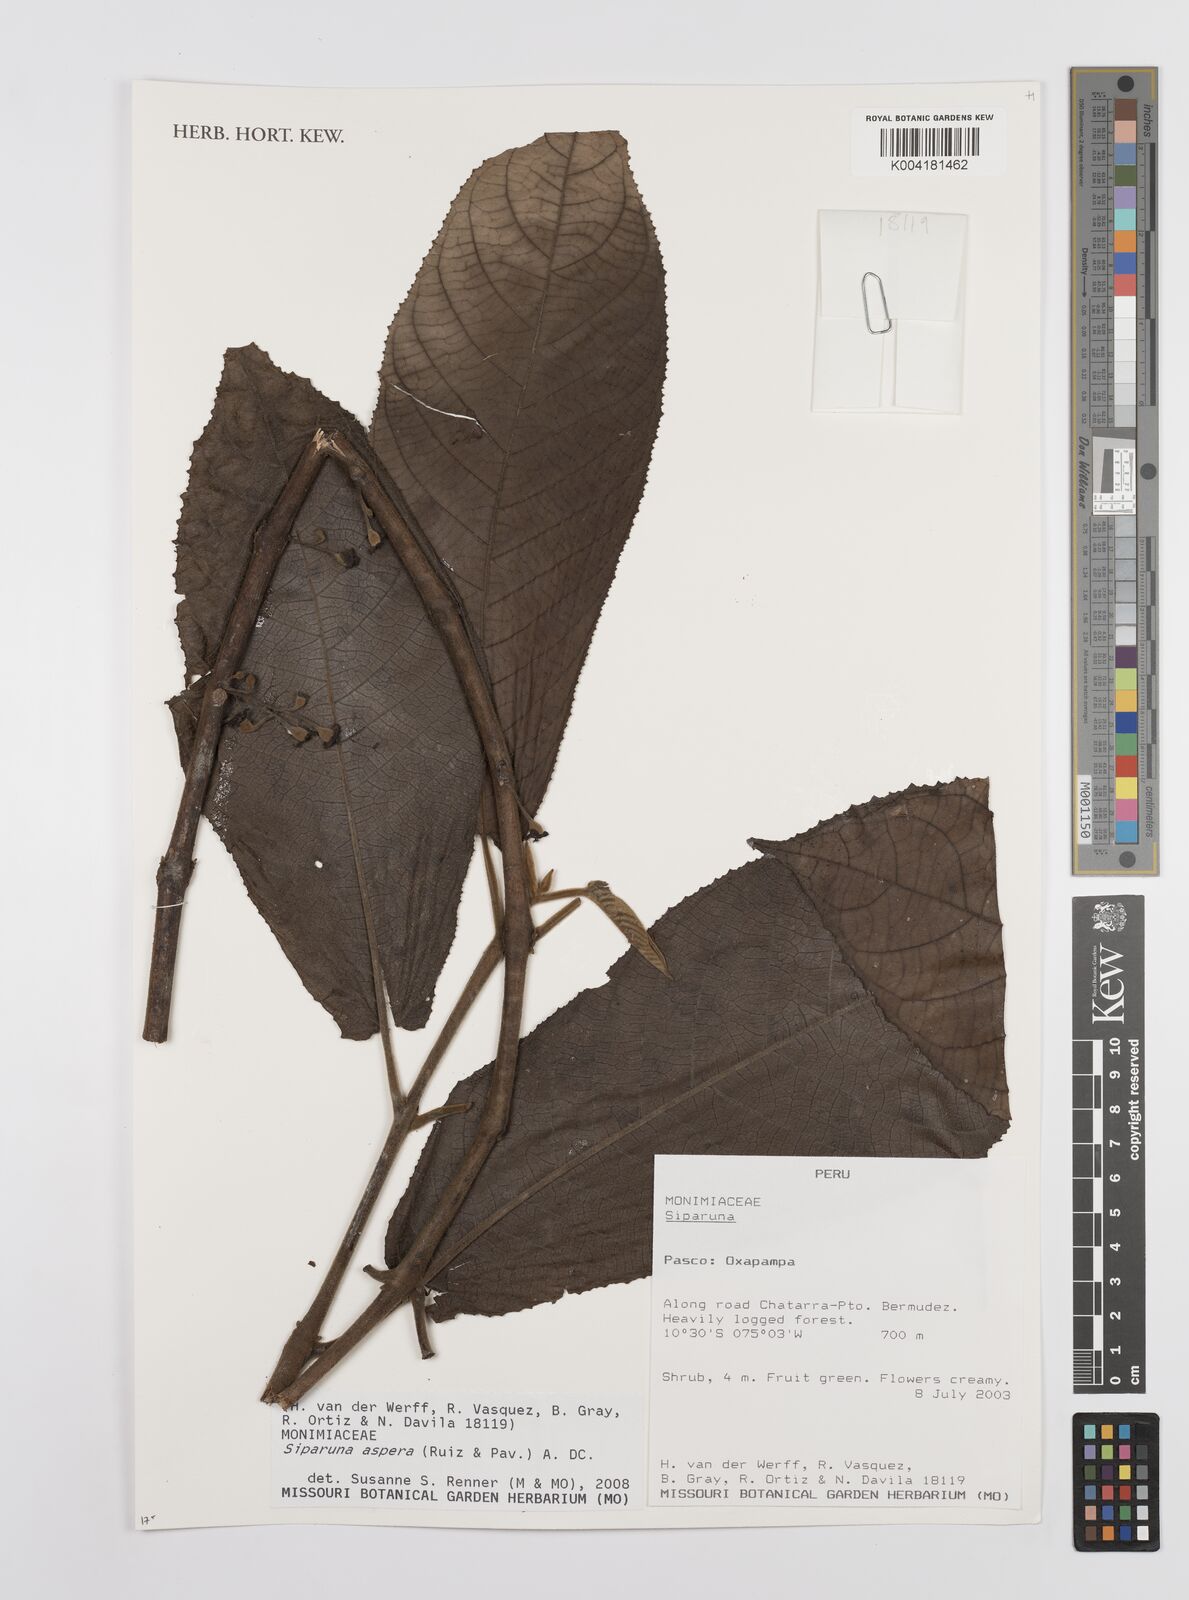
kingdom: Plantae
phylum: Tracheophyta
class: Magnoliopsida
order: Laurales
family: Siparunaceae
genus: Siparuna
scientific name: Siparuna aspera
